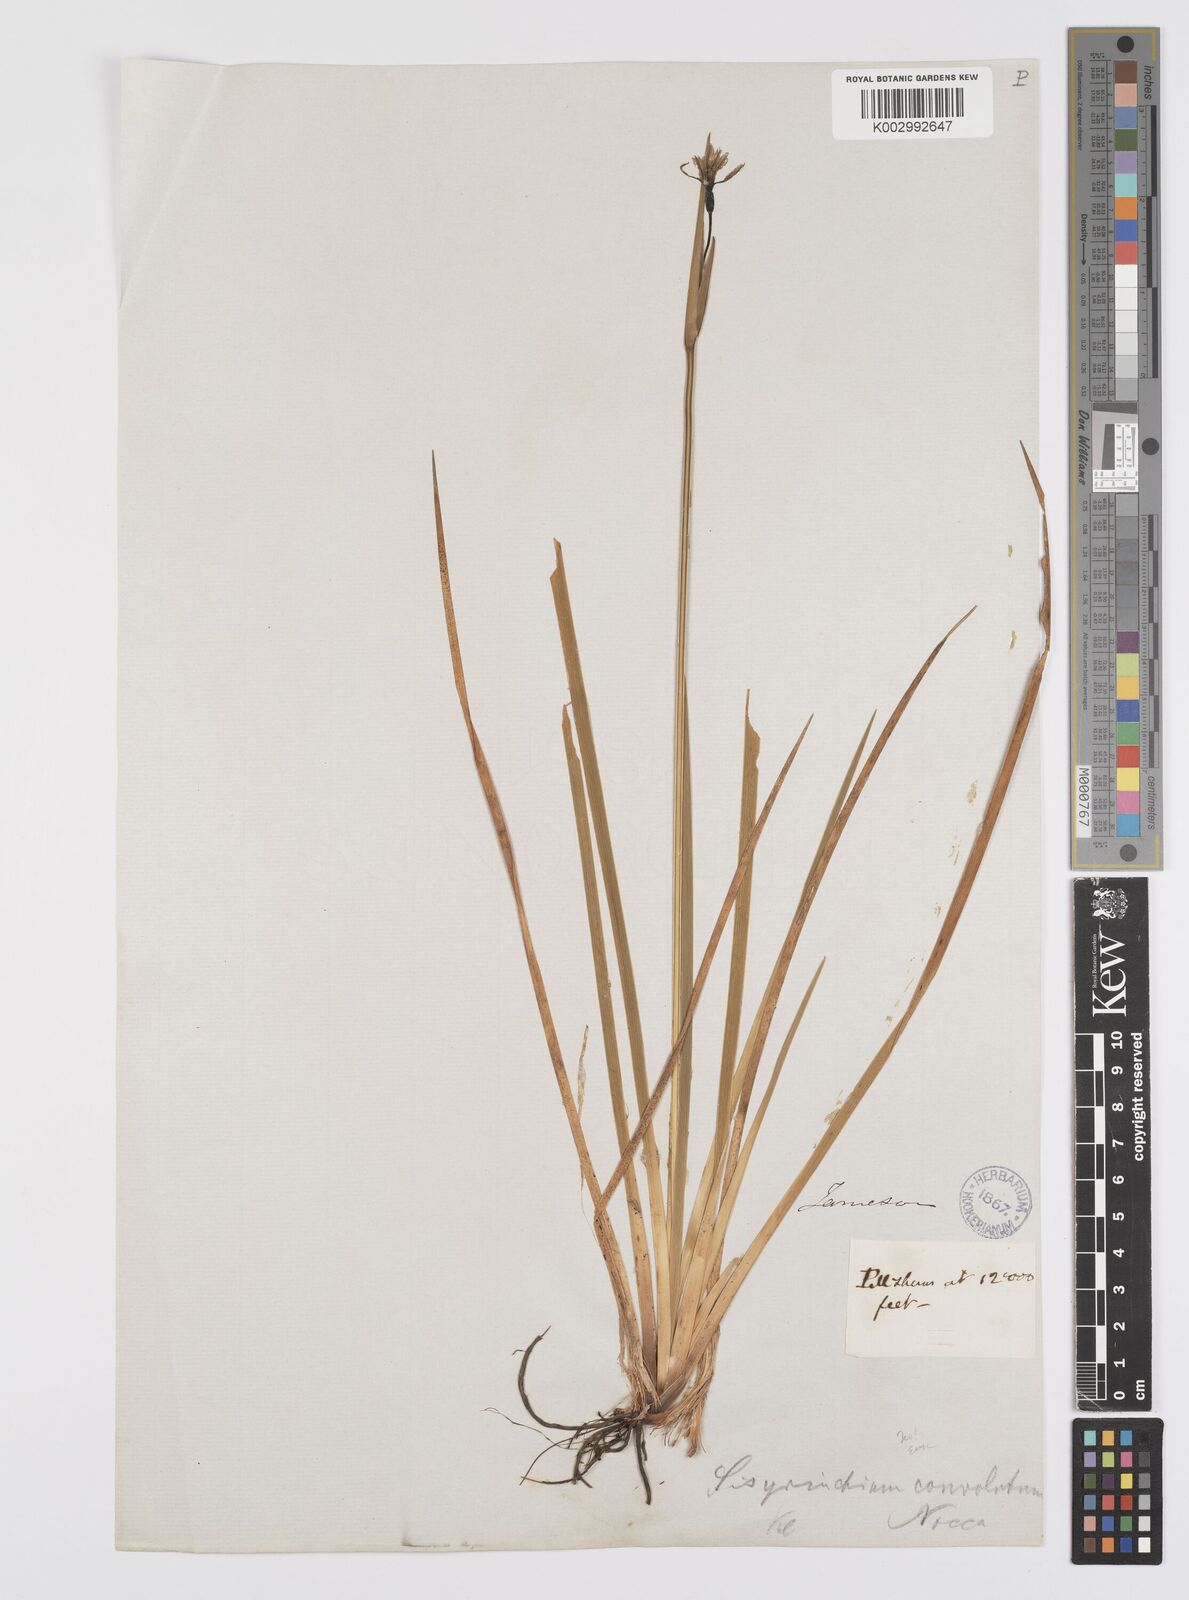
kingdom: Plantae
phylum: Tracheophyta
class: Liliopsida
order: Asparagales
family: Iridaceae
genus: Sisyrinchium
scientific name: Sisyrinchium
